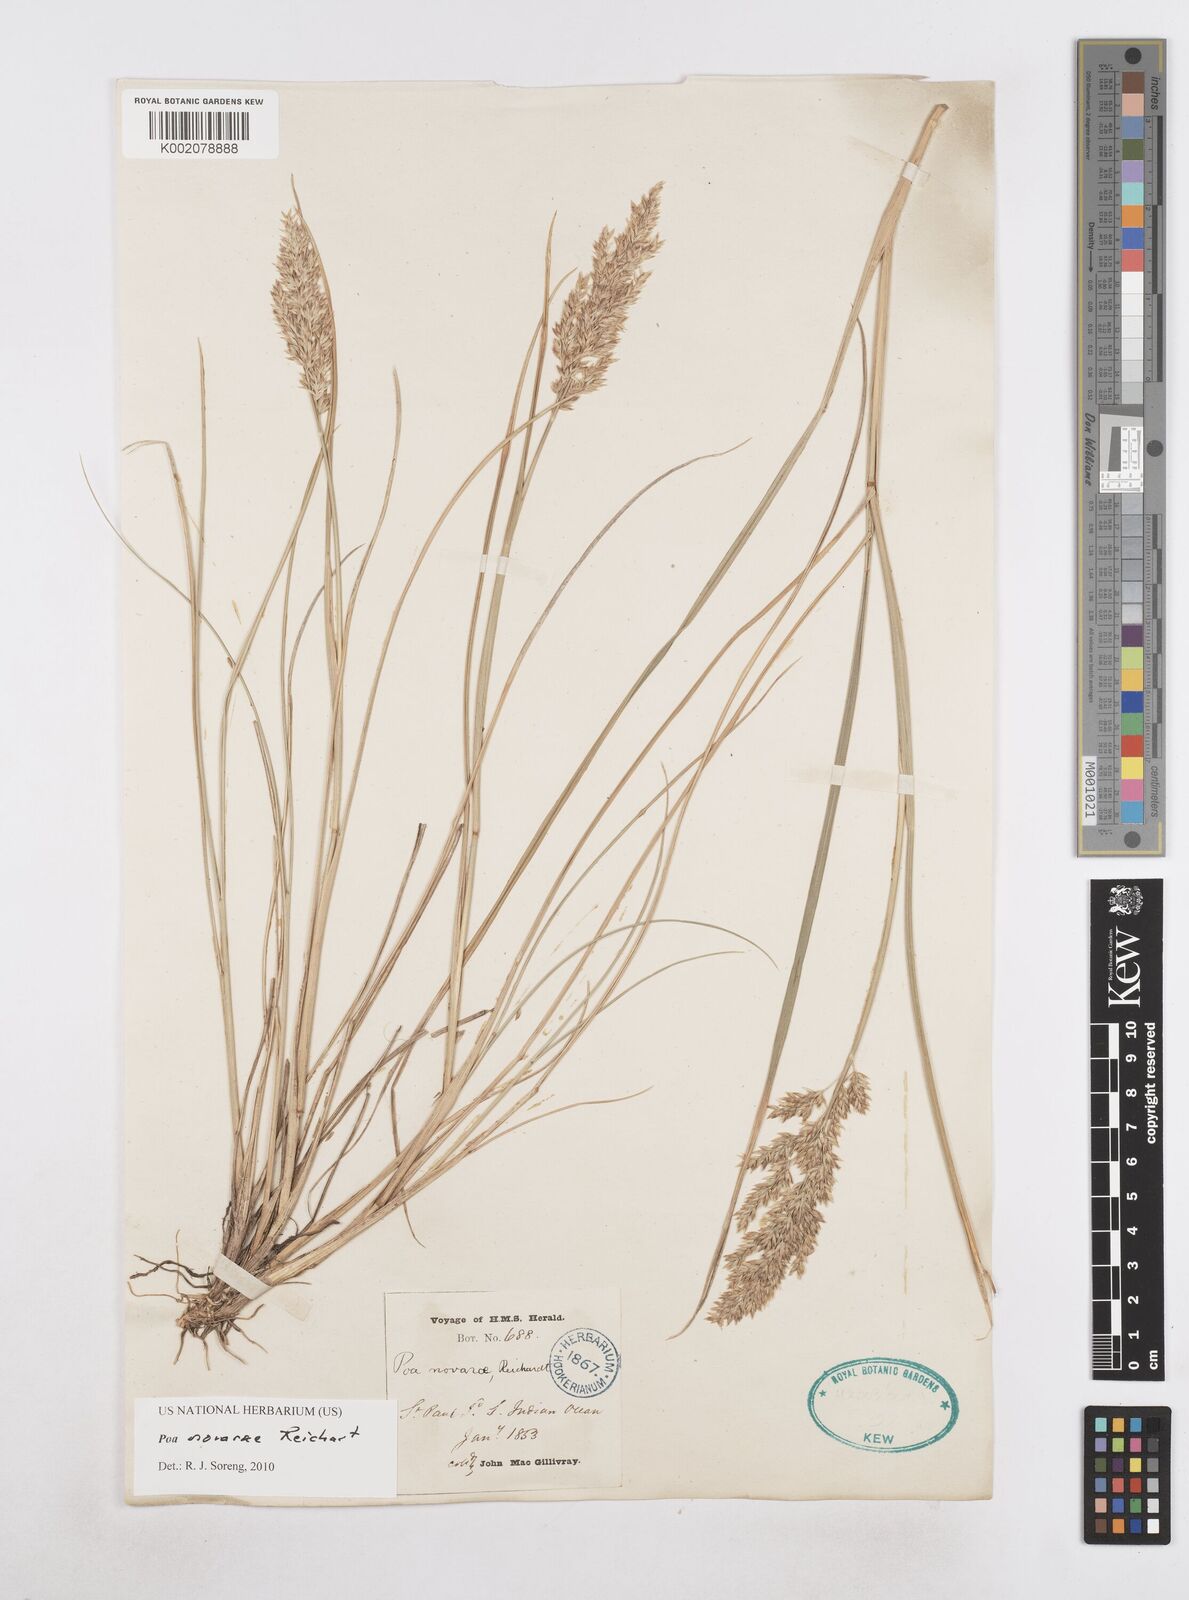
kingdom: Plantae
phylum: Tracheophyta
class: Liliopsida
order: Poales
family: Poaceae
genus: Poa
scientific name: Poa novarae
